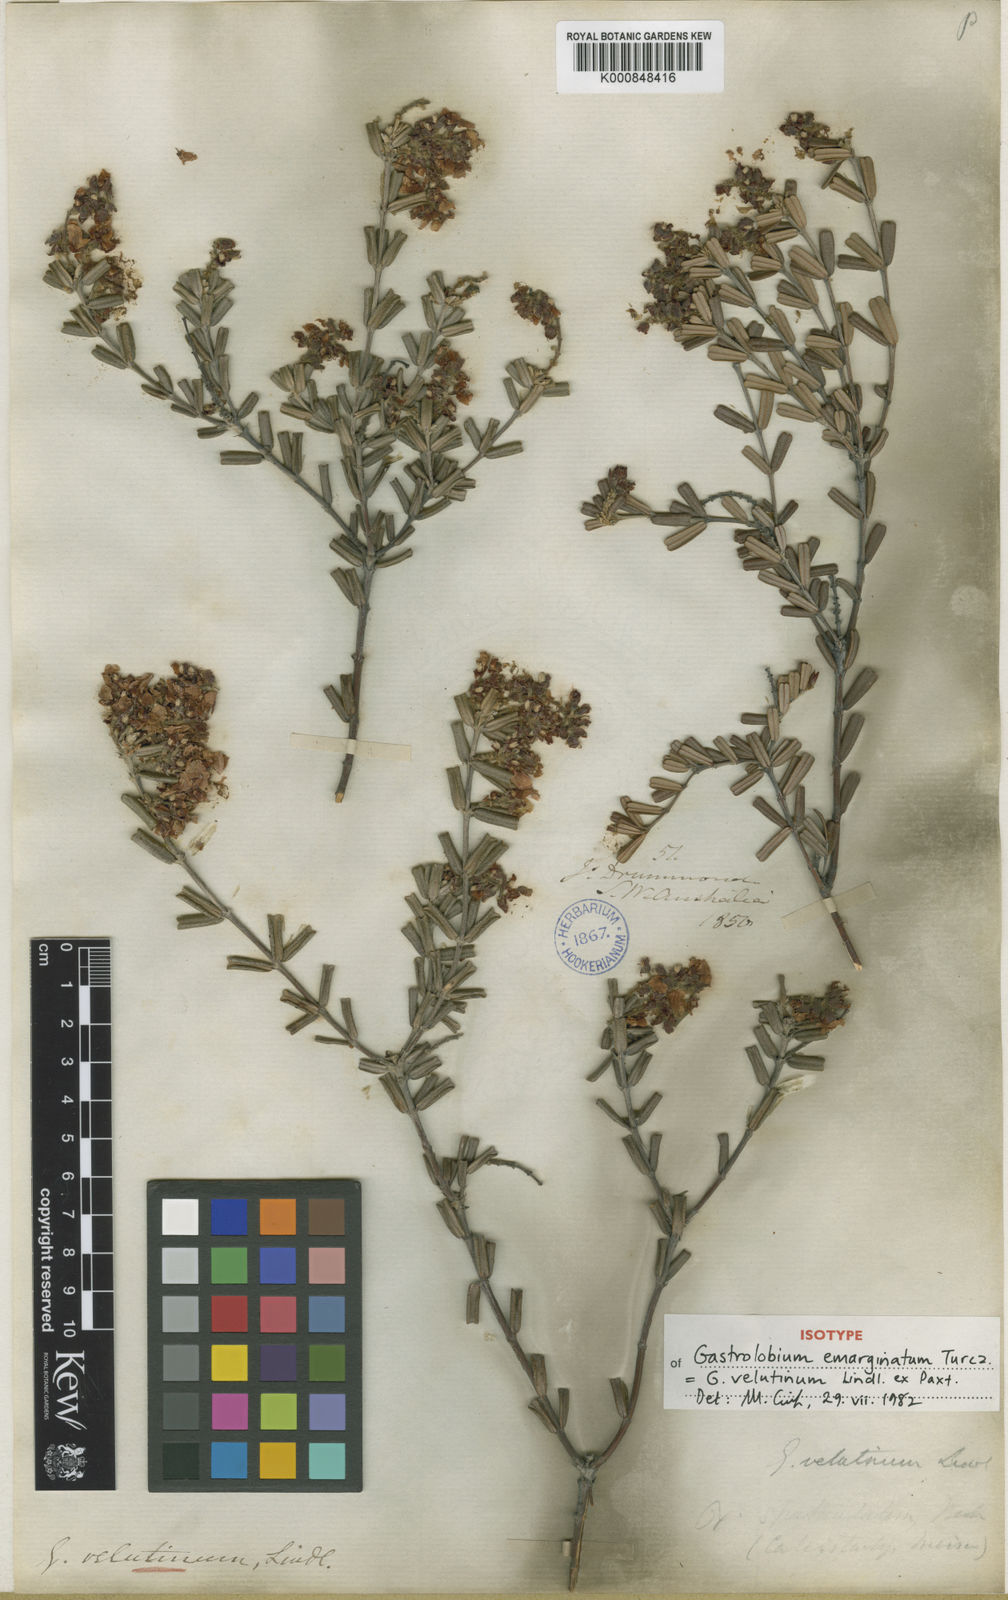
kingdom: Plantae
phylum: Tracheophyta
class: Magnoliopsida
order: Fabales
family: Fabaceae
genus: Gastrolobium
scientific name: Gastrolobium velutinum
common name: Stirling range poison
